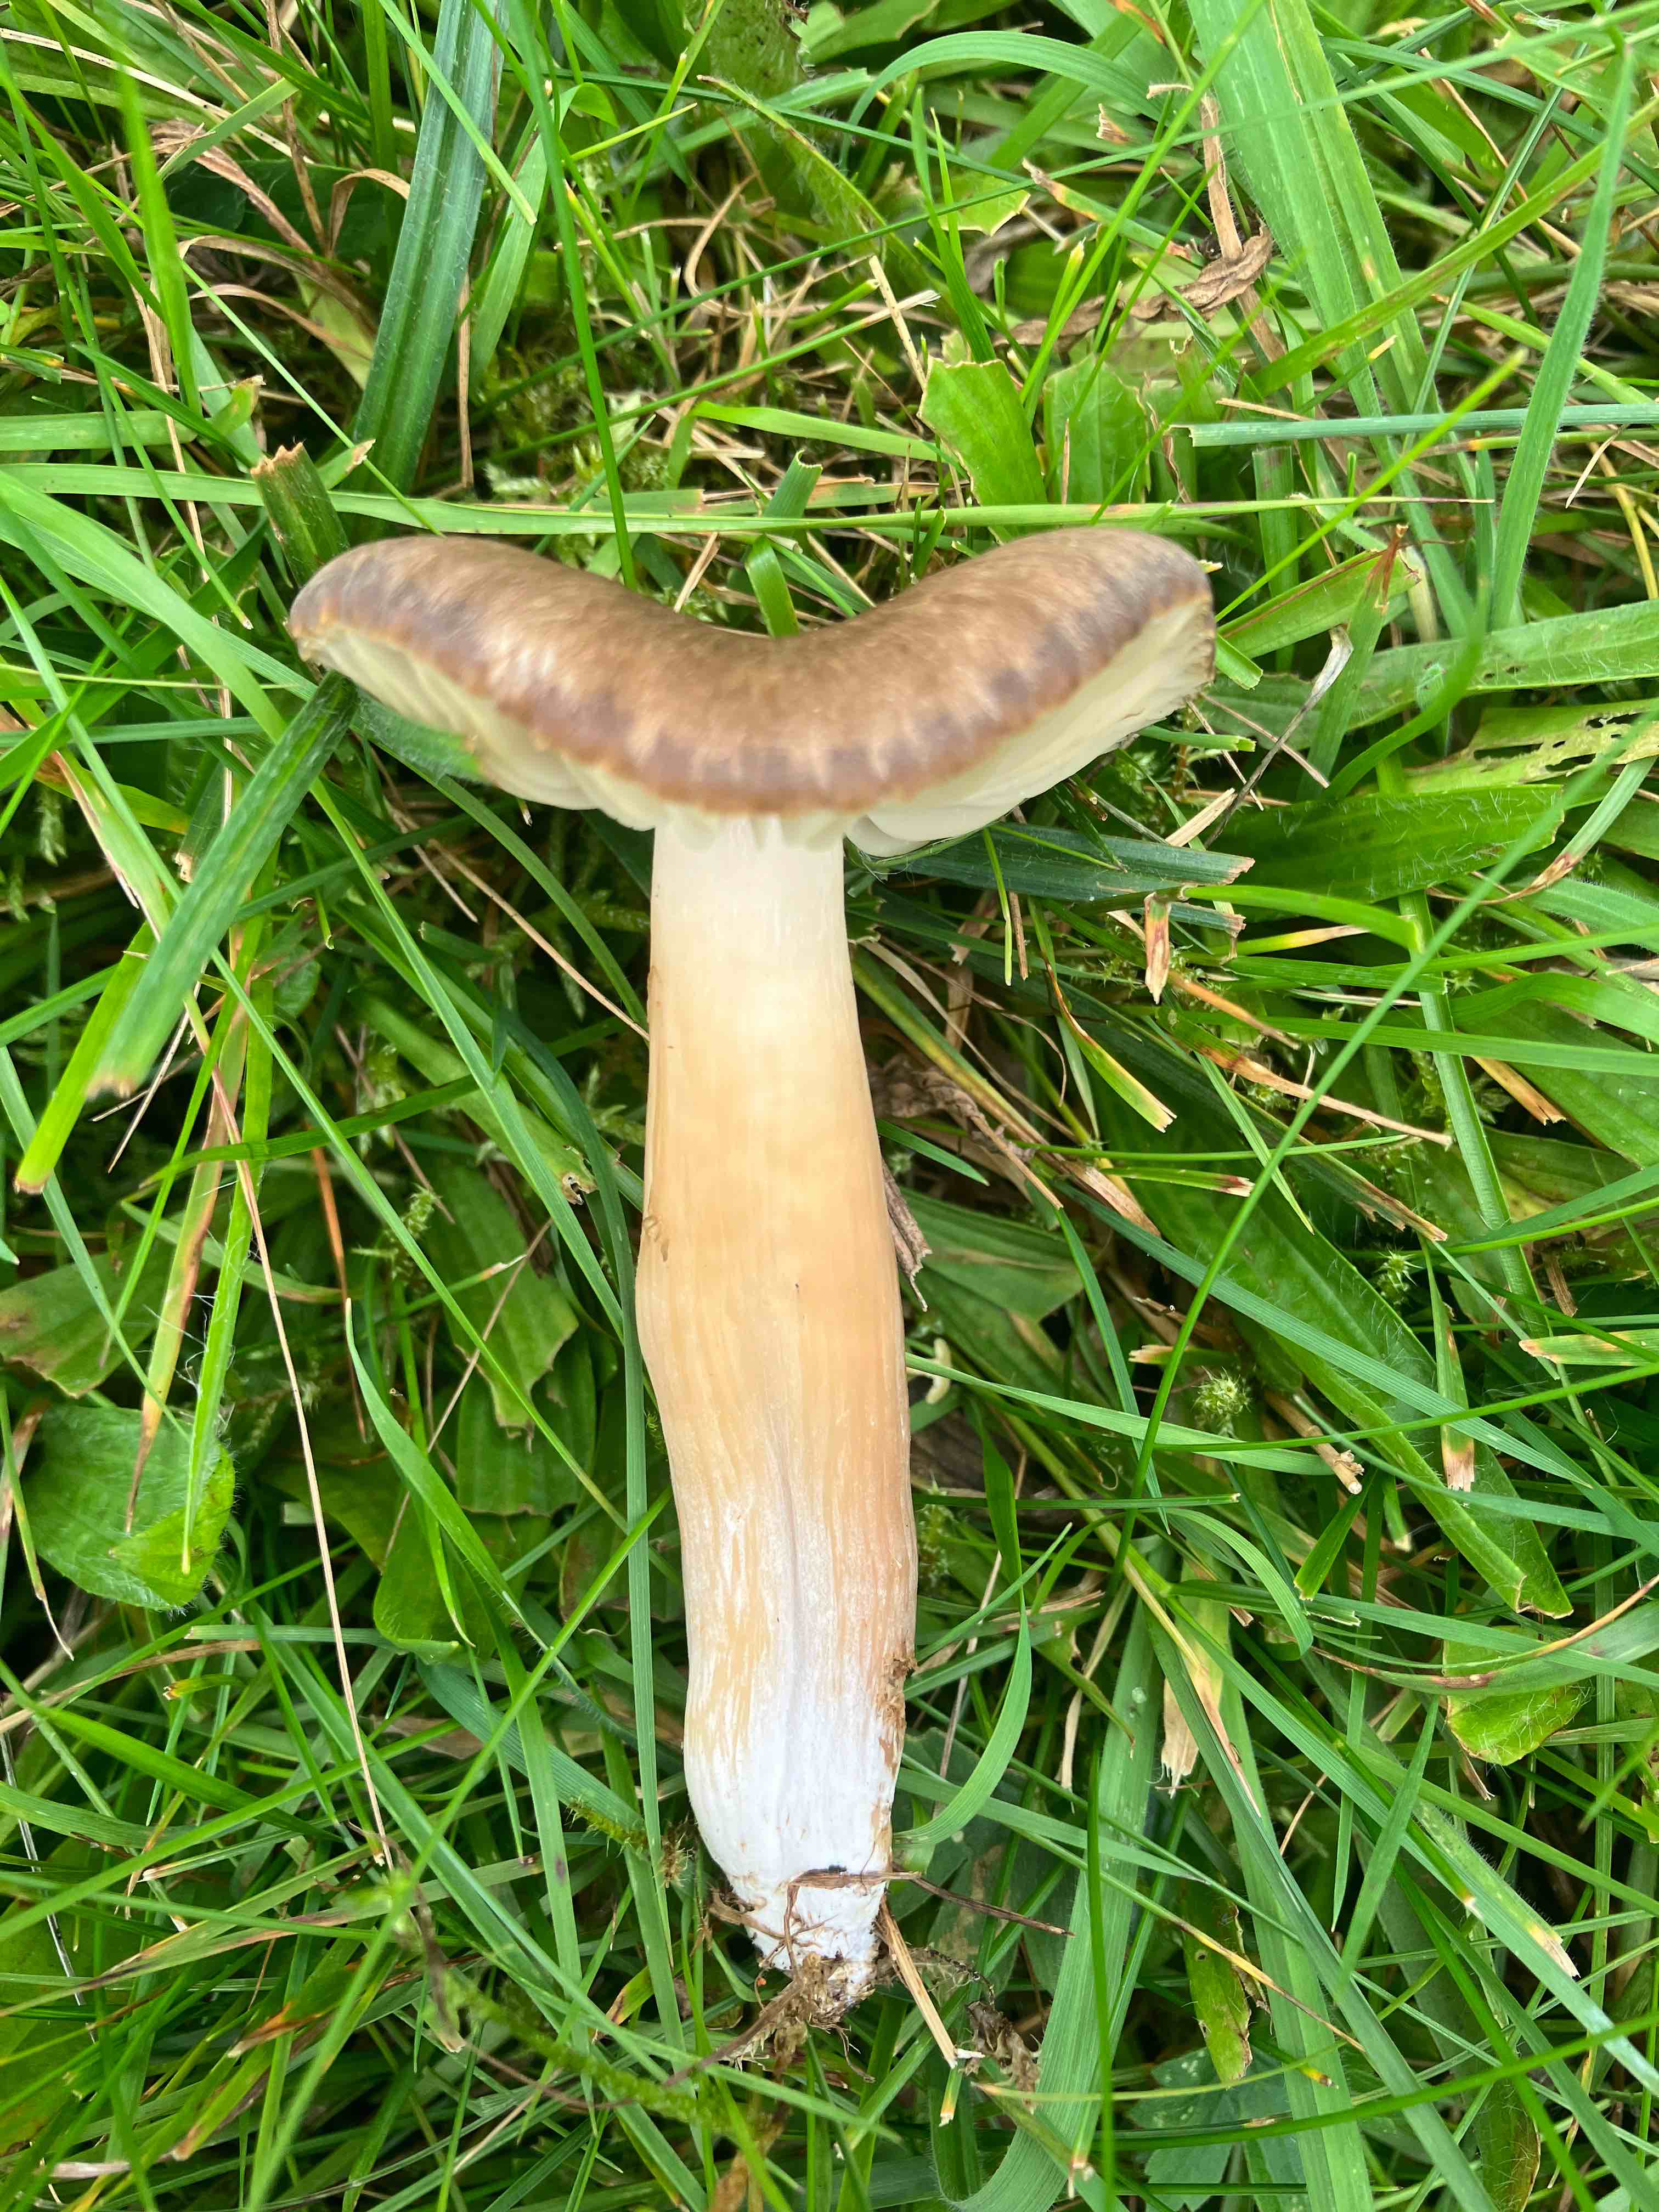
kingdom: Fungi
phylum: Basidiomycota
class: Agaricomycetes
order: Agaricales
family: Hygrophoraceae
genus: Neohygrocybe
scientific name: Neohygrocybe nitrata
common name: stinkende vokshat
